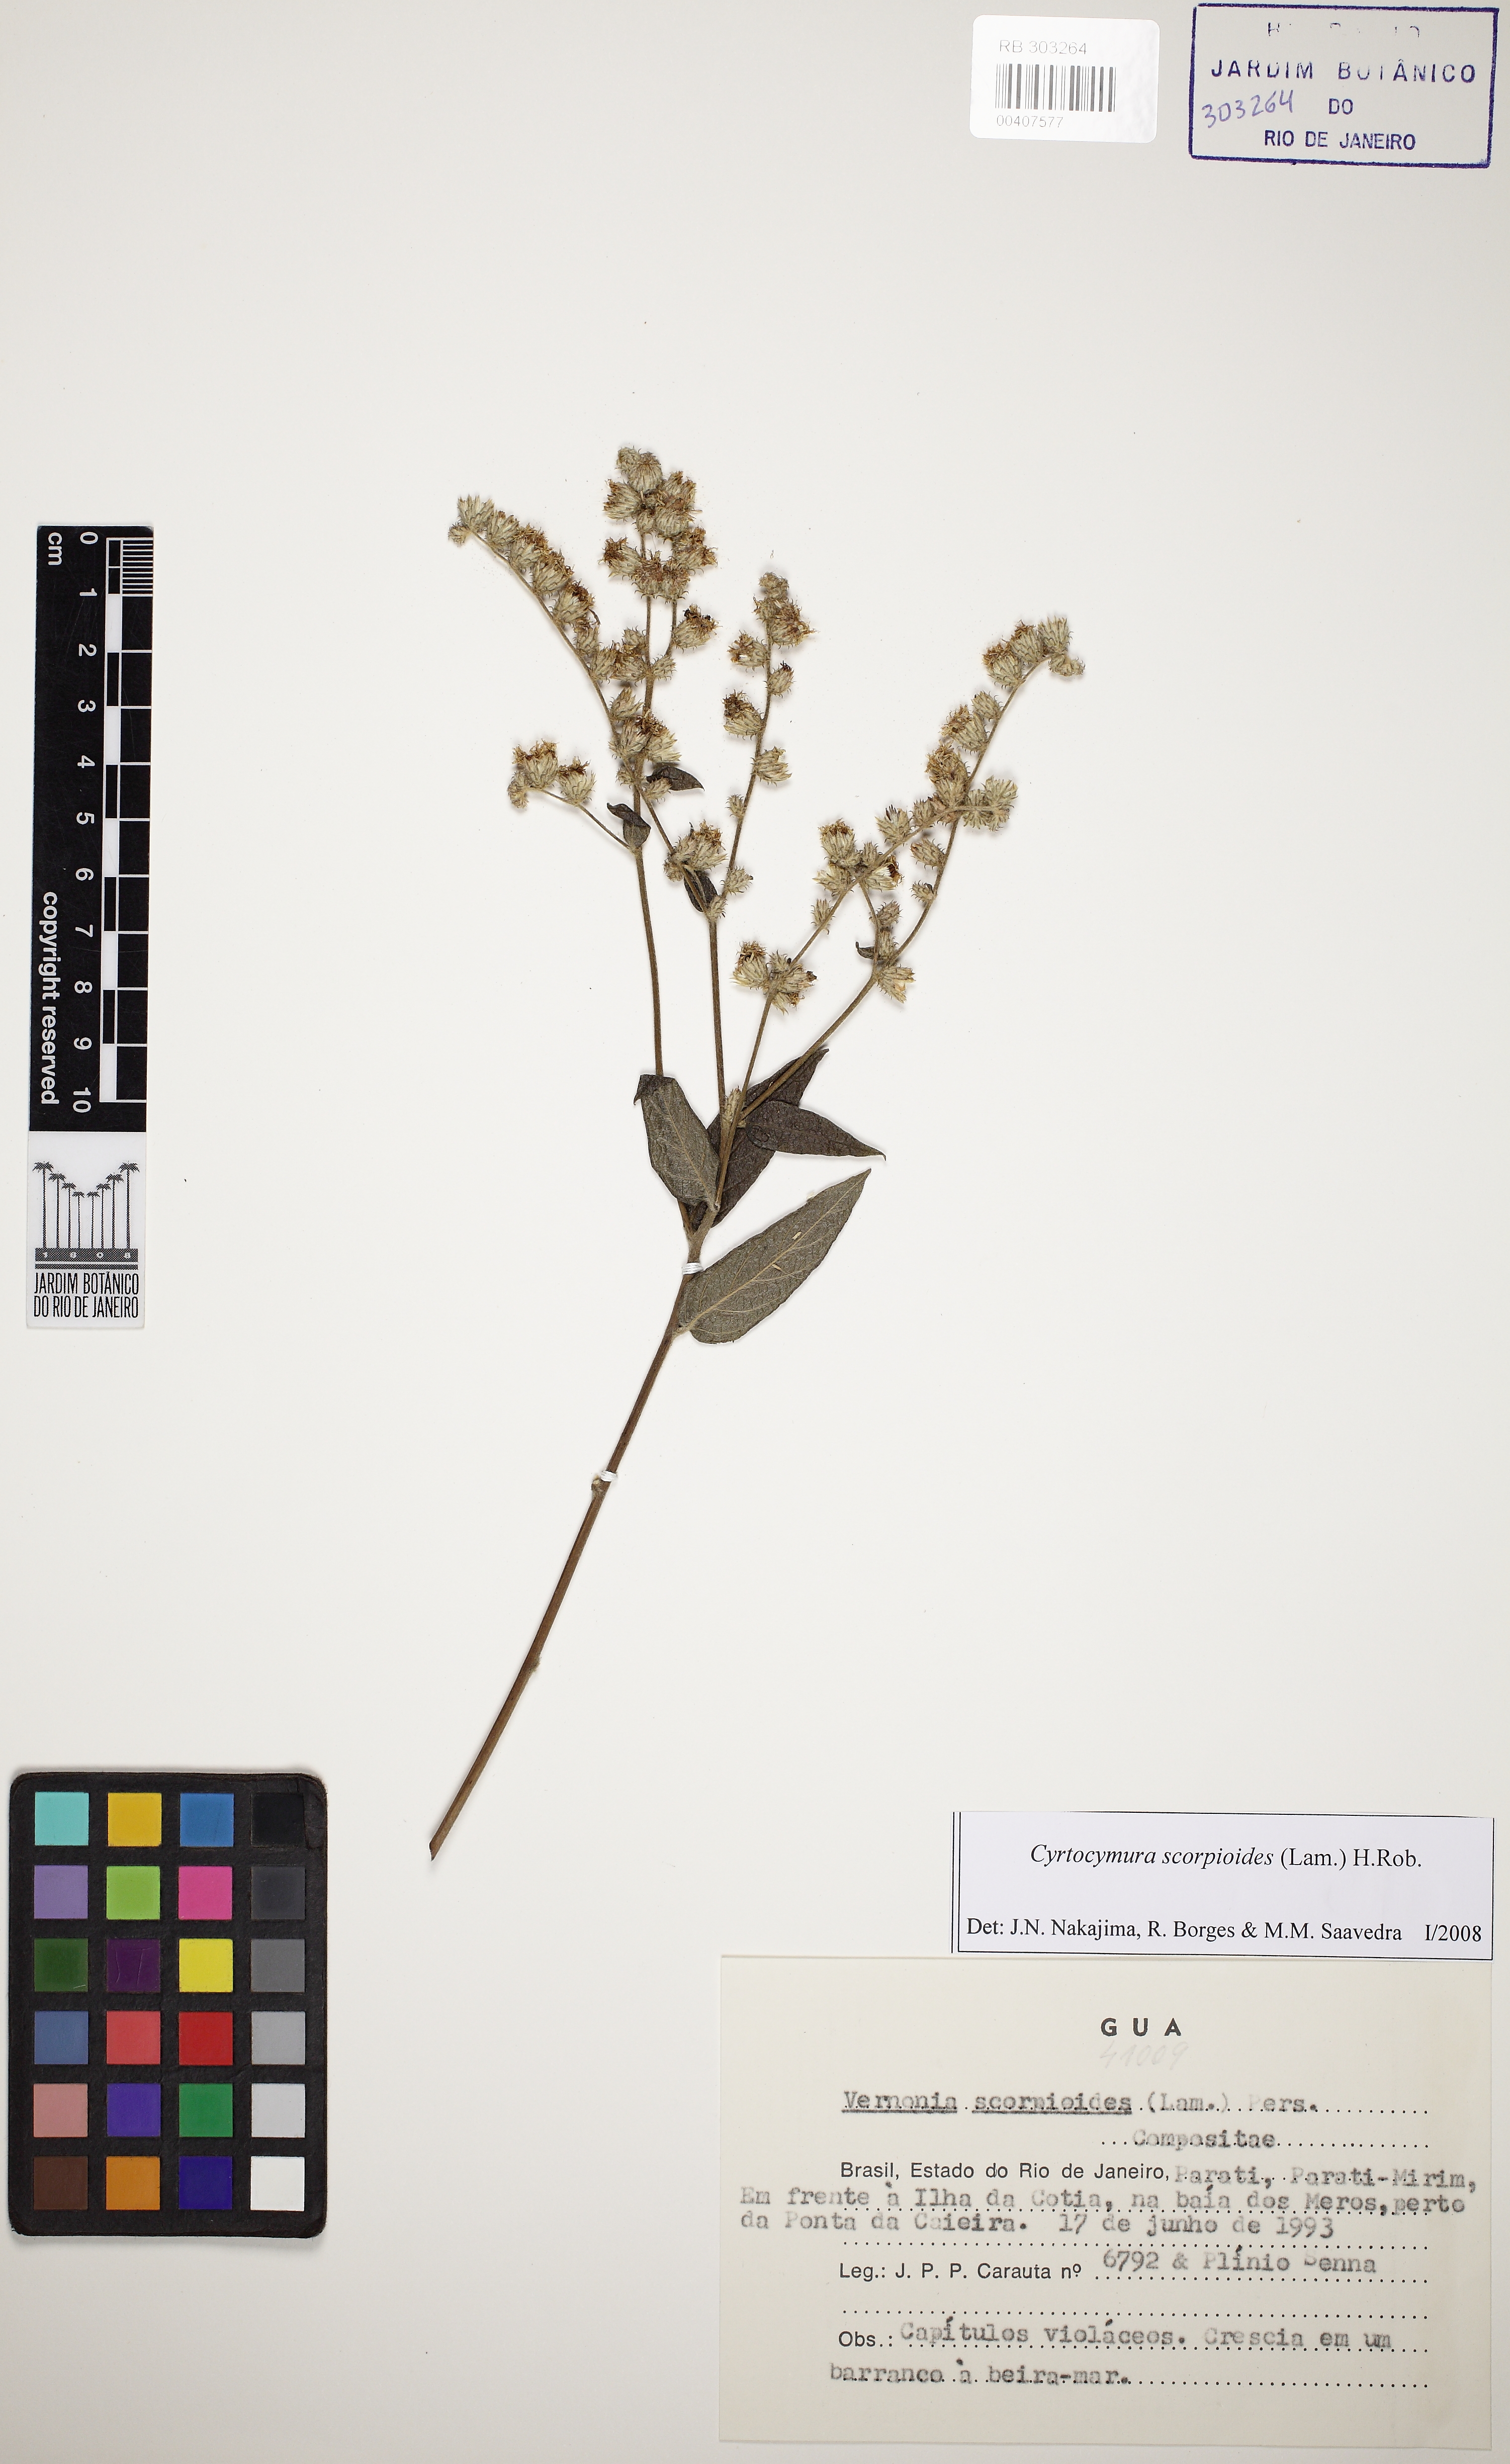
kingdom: Plantae
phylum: Tracheophyta
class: Magnoliopsida
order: Asterales
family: Asteraceae
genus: Cyrtocymura
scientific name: Cyrtocymura scorpioides
